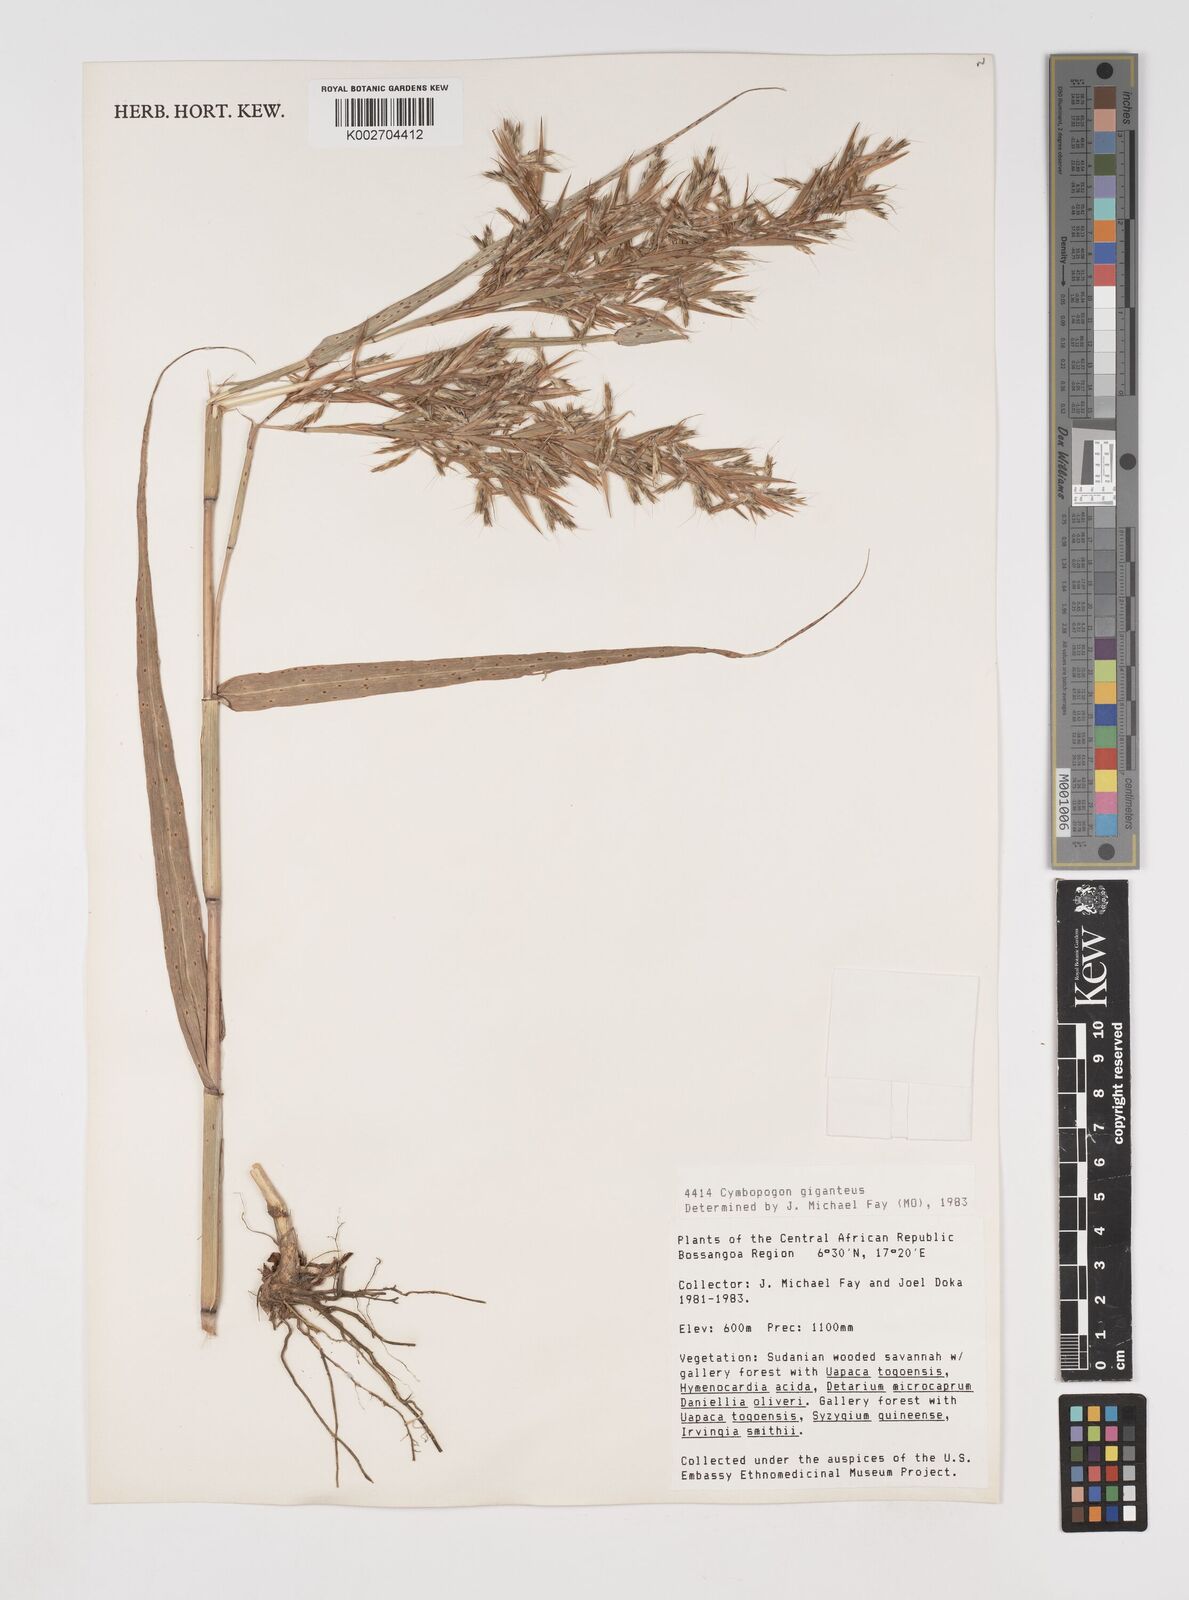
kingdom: Plantae
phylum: Tracheophyta
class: Liliopsida
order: Poales
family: Poaceae
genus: Cymbopogon
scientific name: Cymbopogon giganteus
